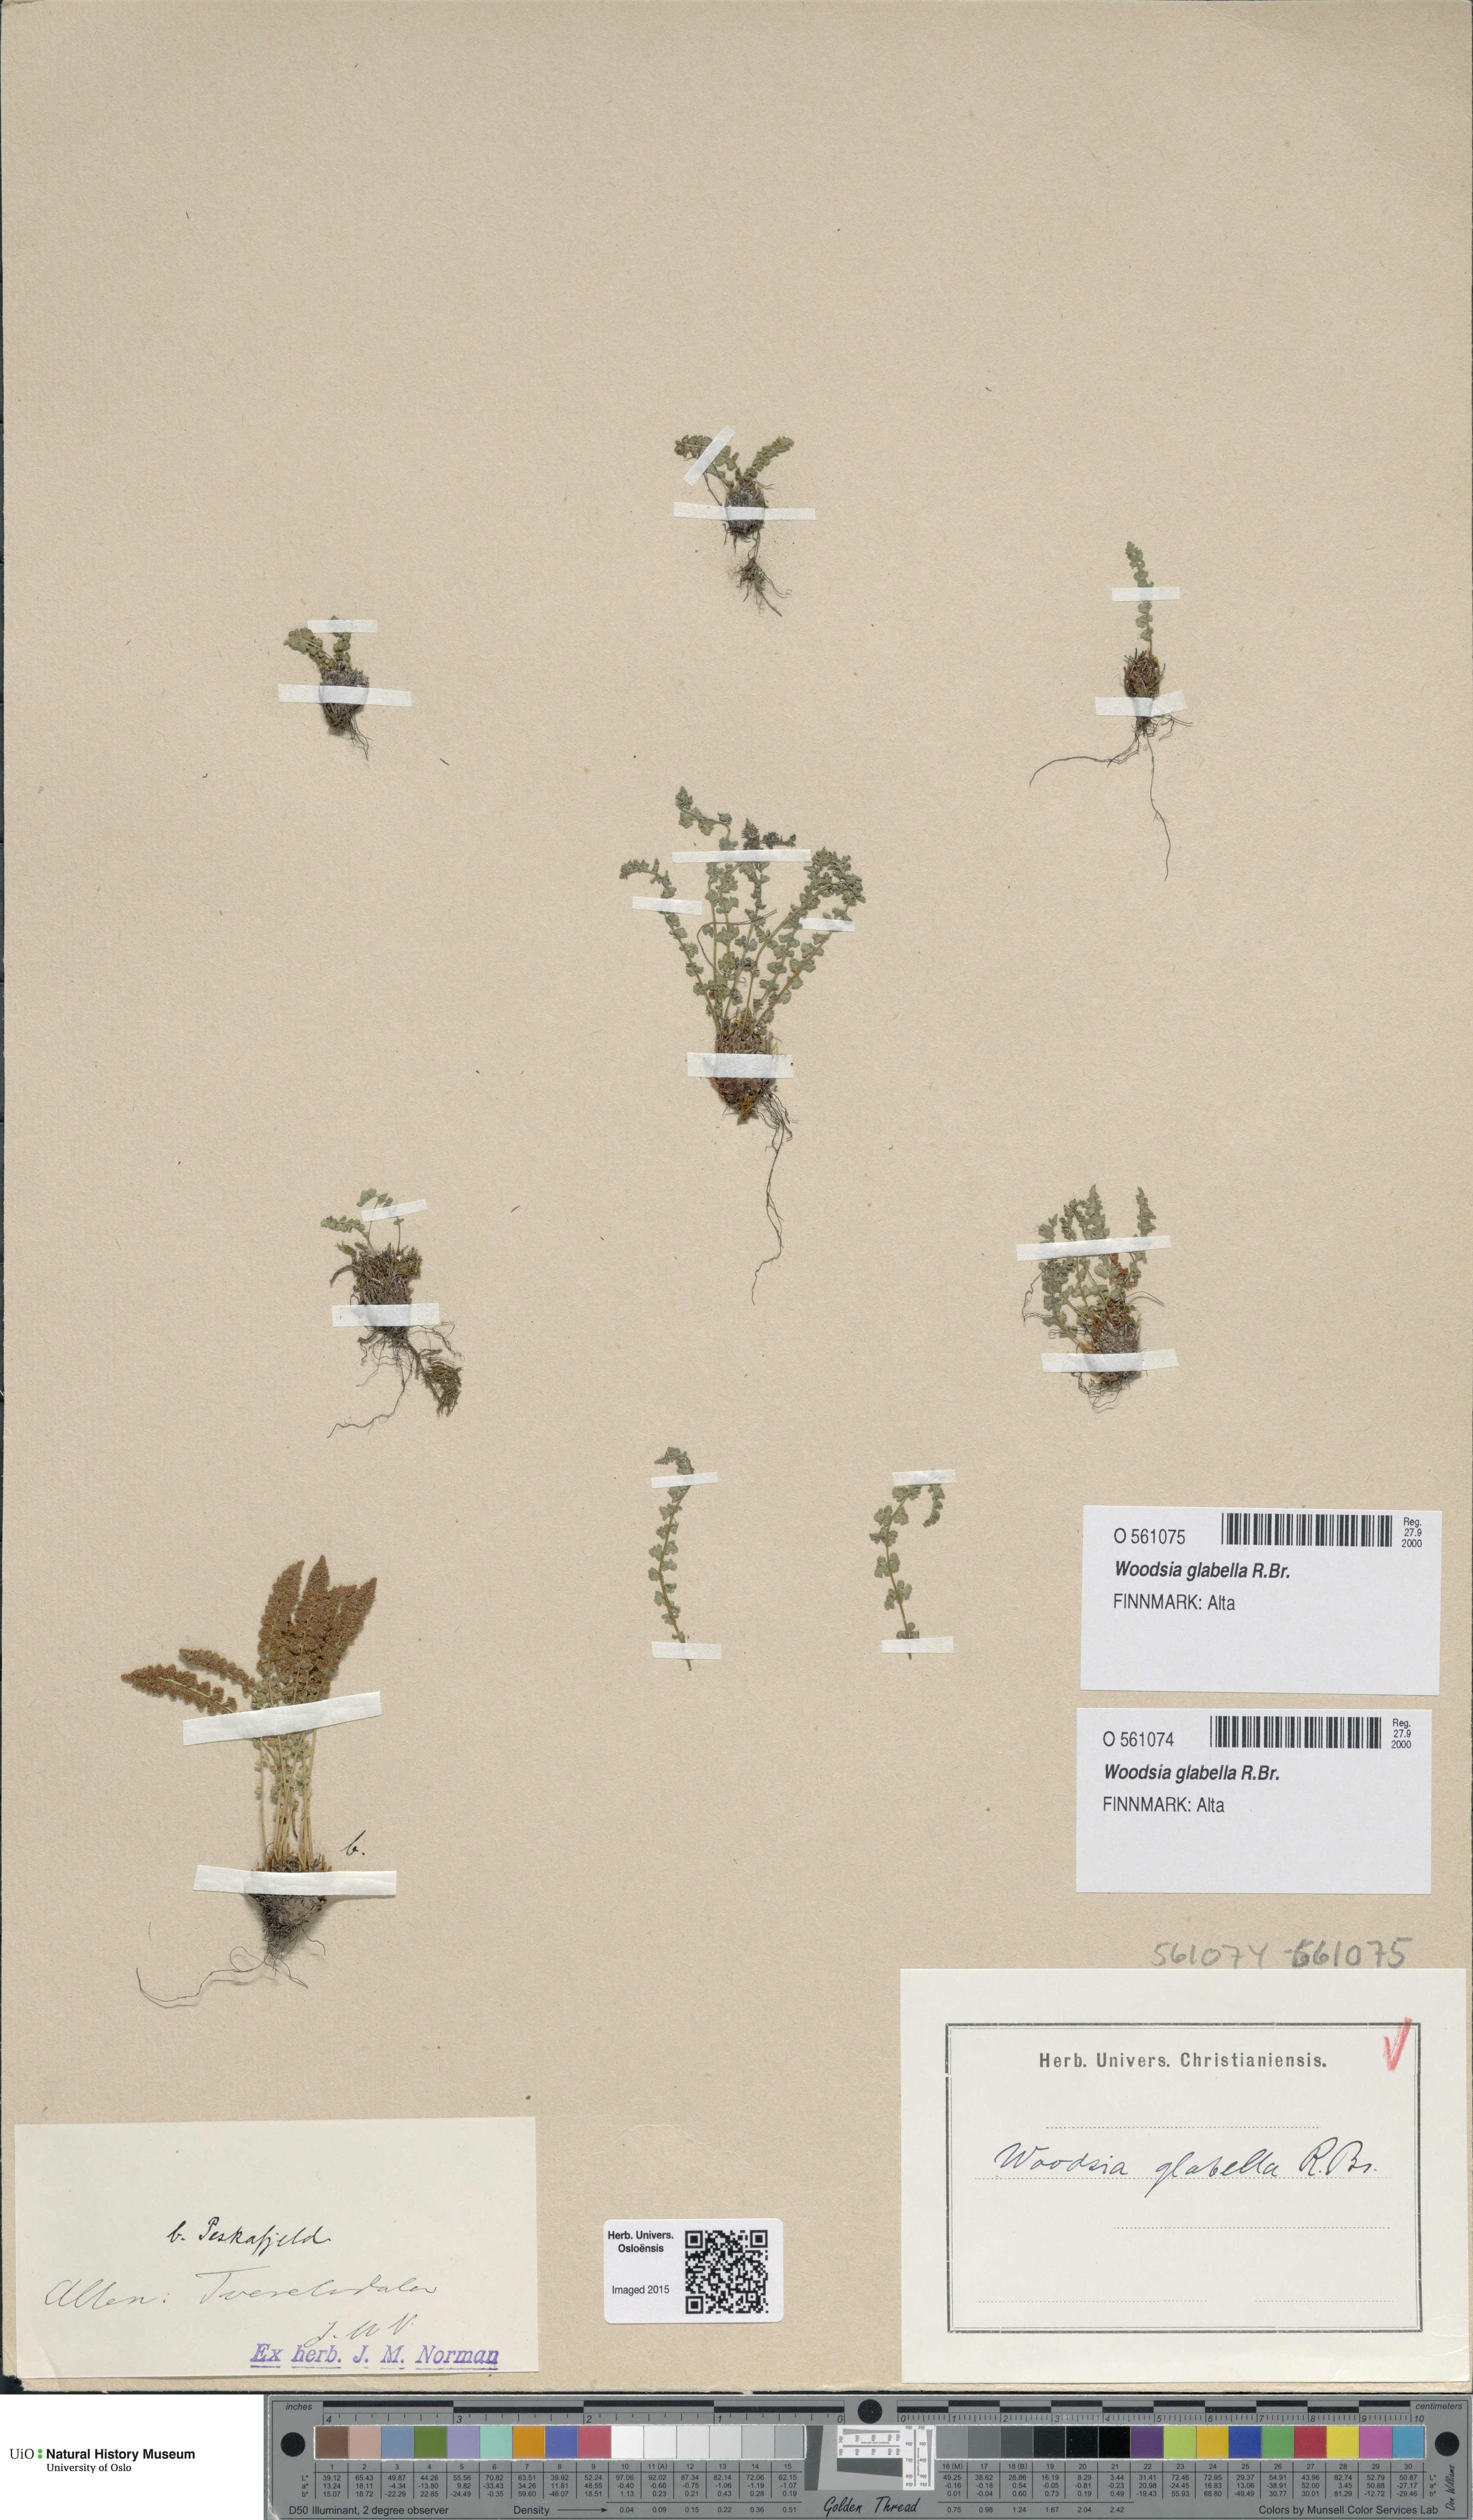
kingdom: Plantae
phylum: Tracheophyta
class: Polypodiopsida
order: Polypodiales
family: Woodsiaceae
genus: Woodsia
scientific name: Woodsia glabella
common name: Smooth woodsia
